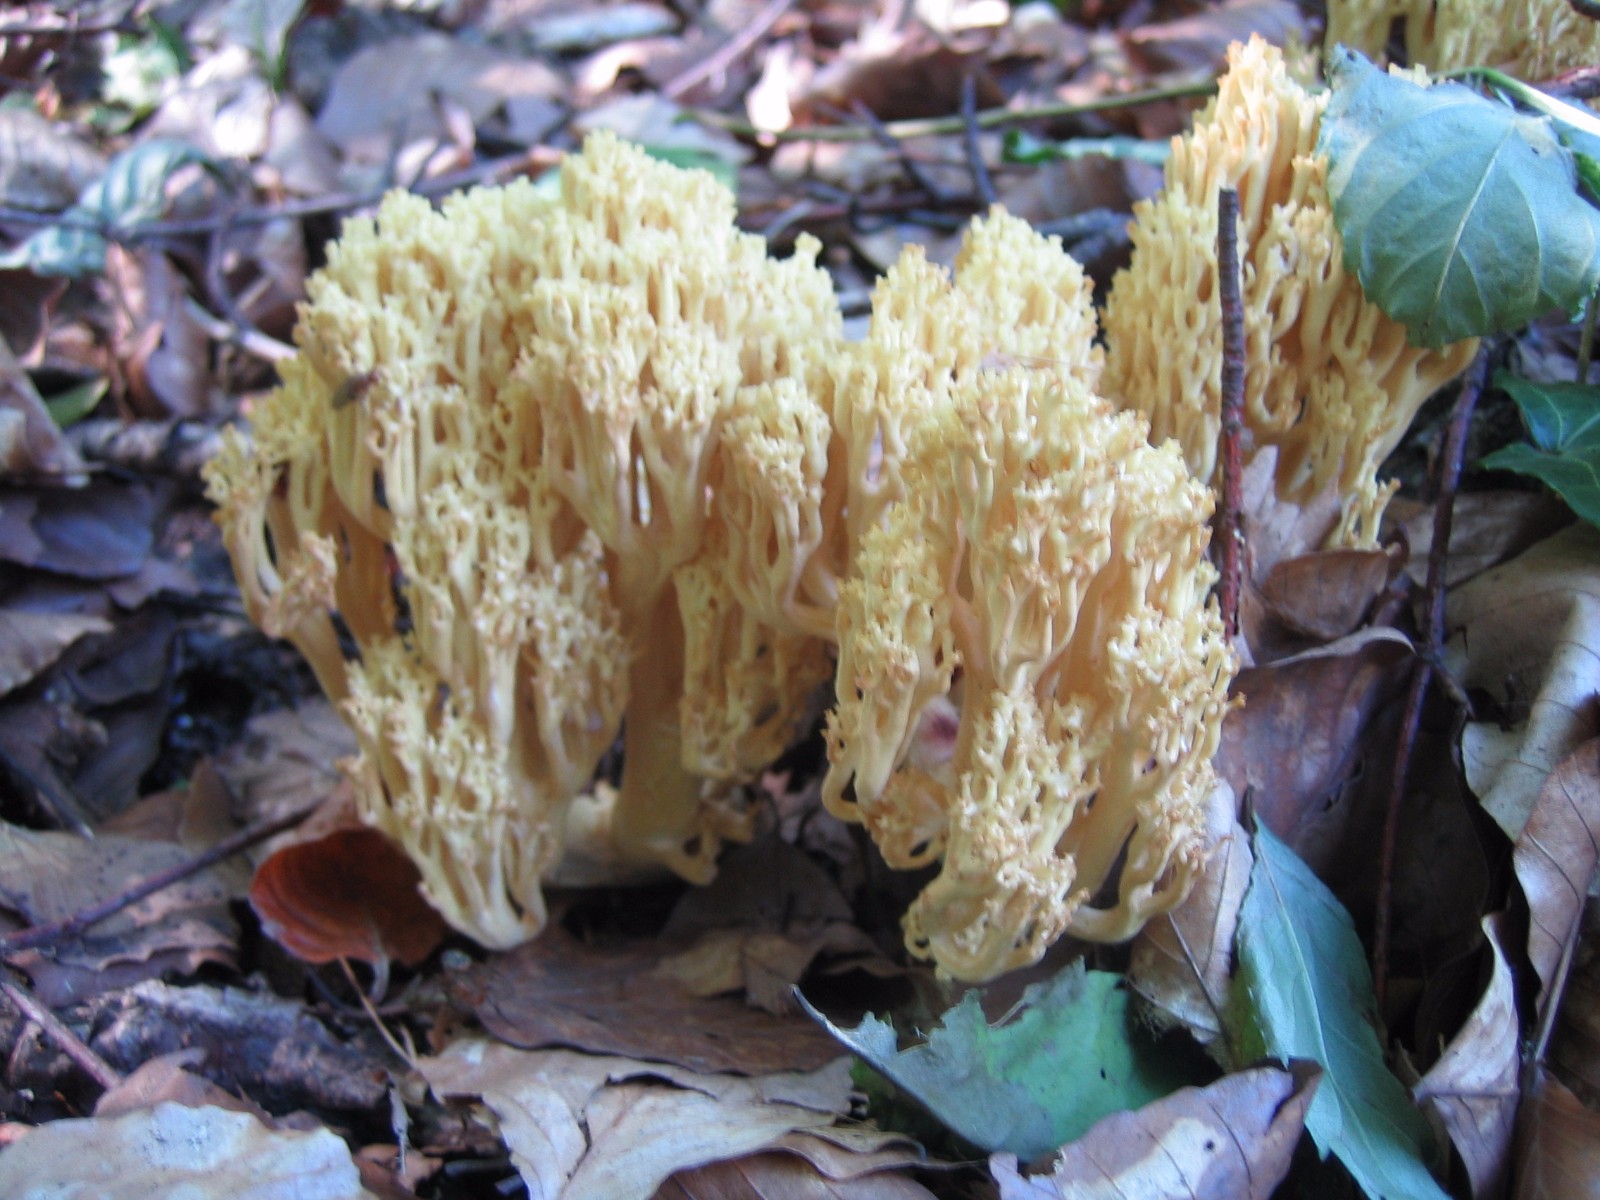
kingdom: Fungi
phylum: Basidiomycota
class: Agaricomycetes
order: Gomphales
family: Gomphaceae
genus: Ramaria
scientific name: Ramaria sanguinea
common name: blodplettet koralsvamp
